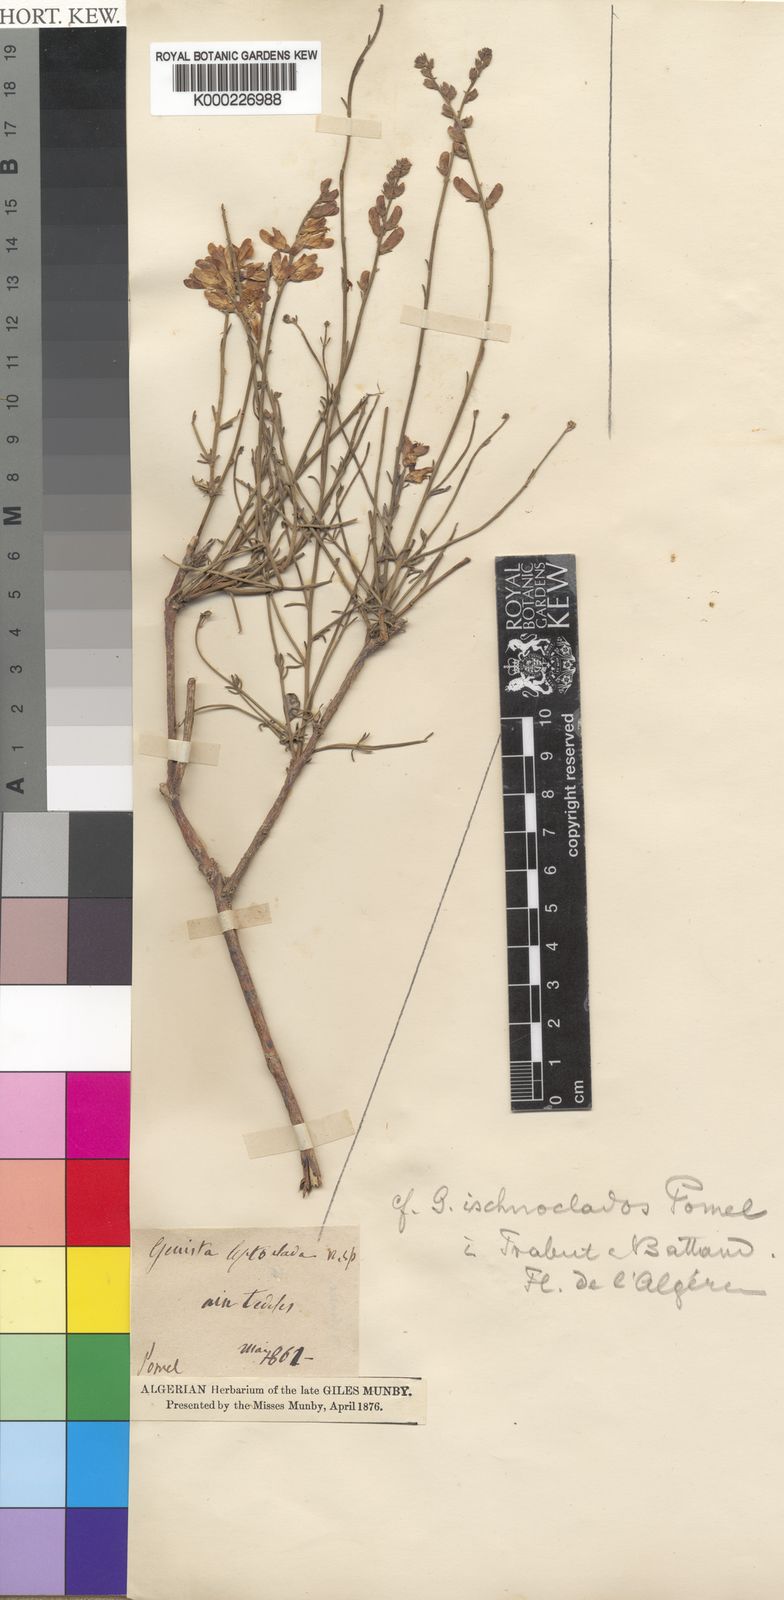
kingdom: Plantae
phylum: Tracheophyta
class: Magnoliopsida
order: Fabales
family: Fabaceae
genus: Genista
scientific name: Genista florida
